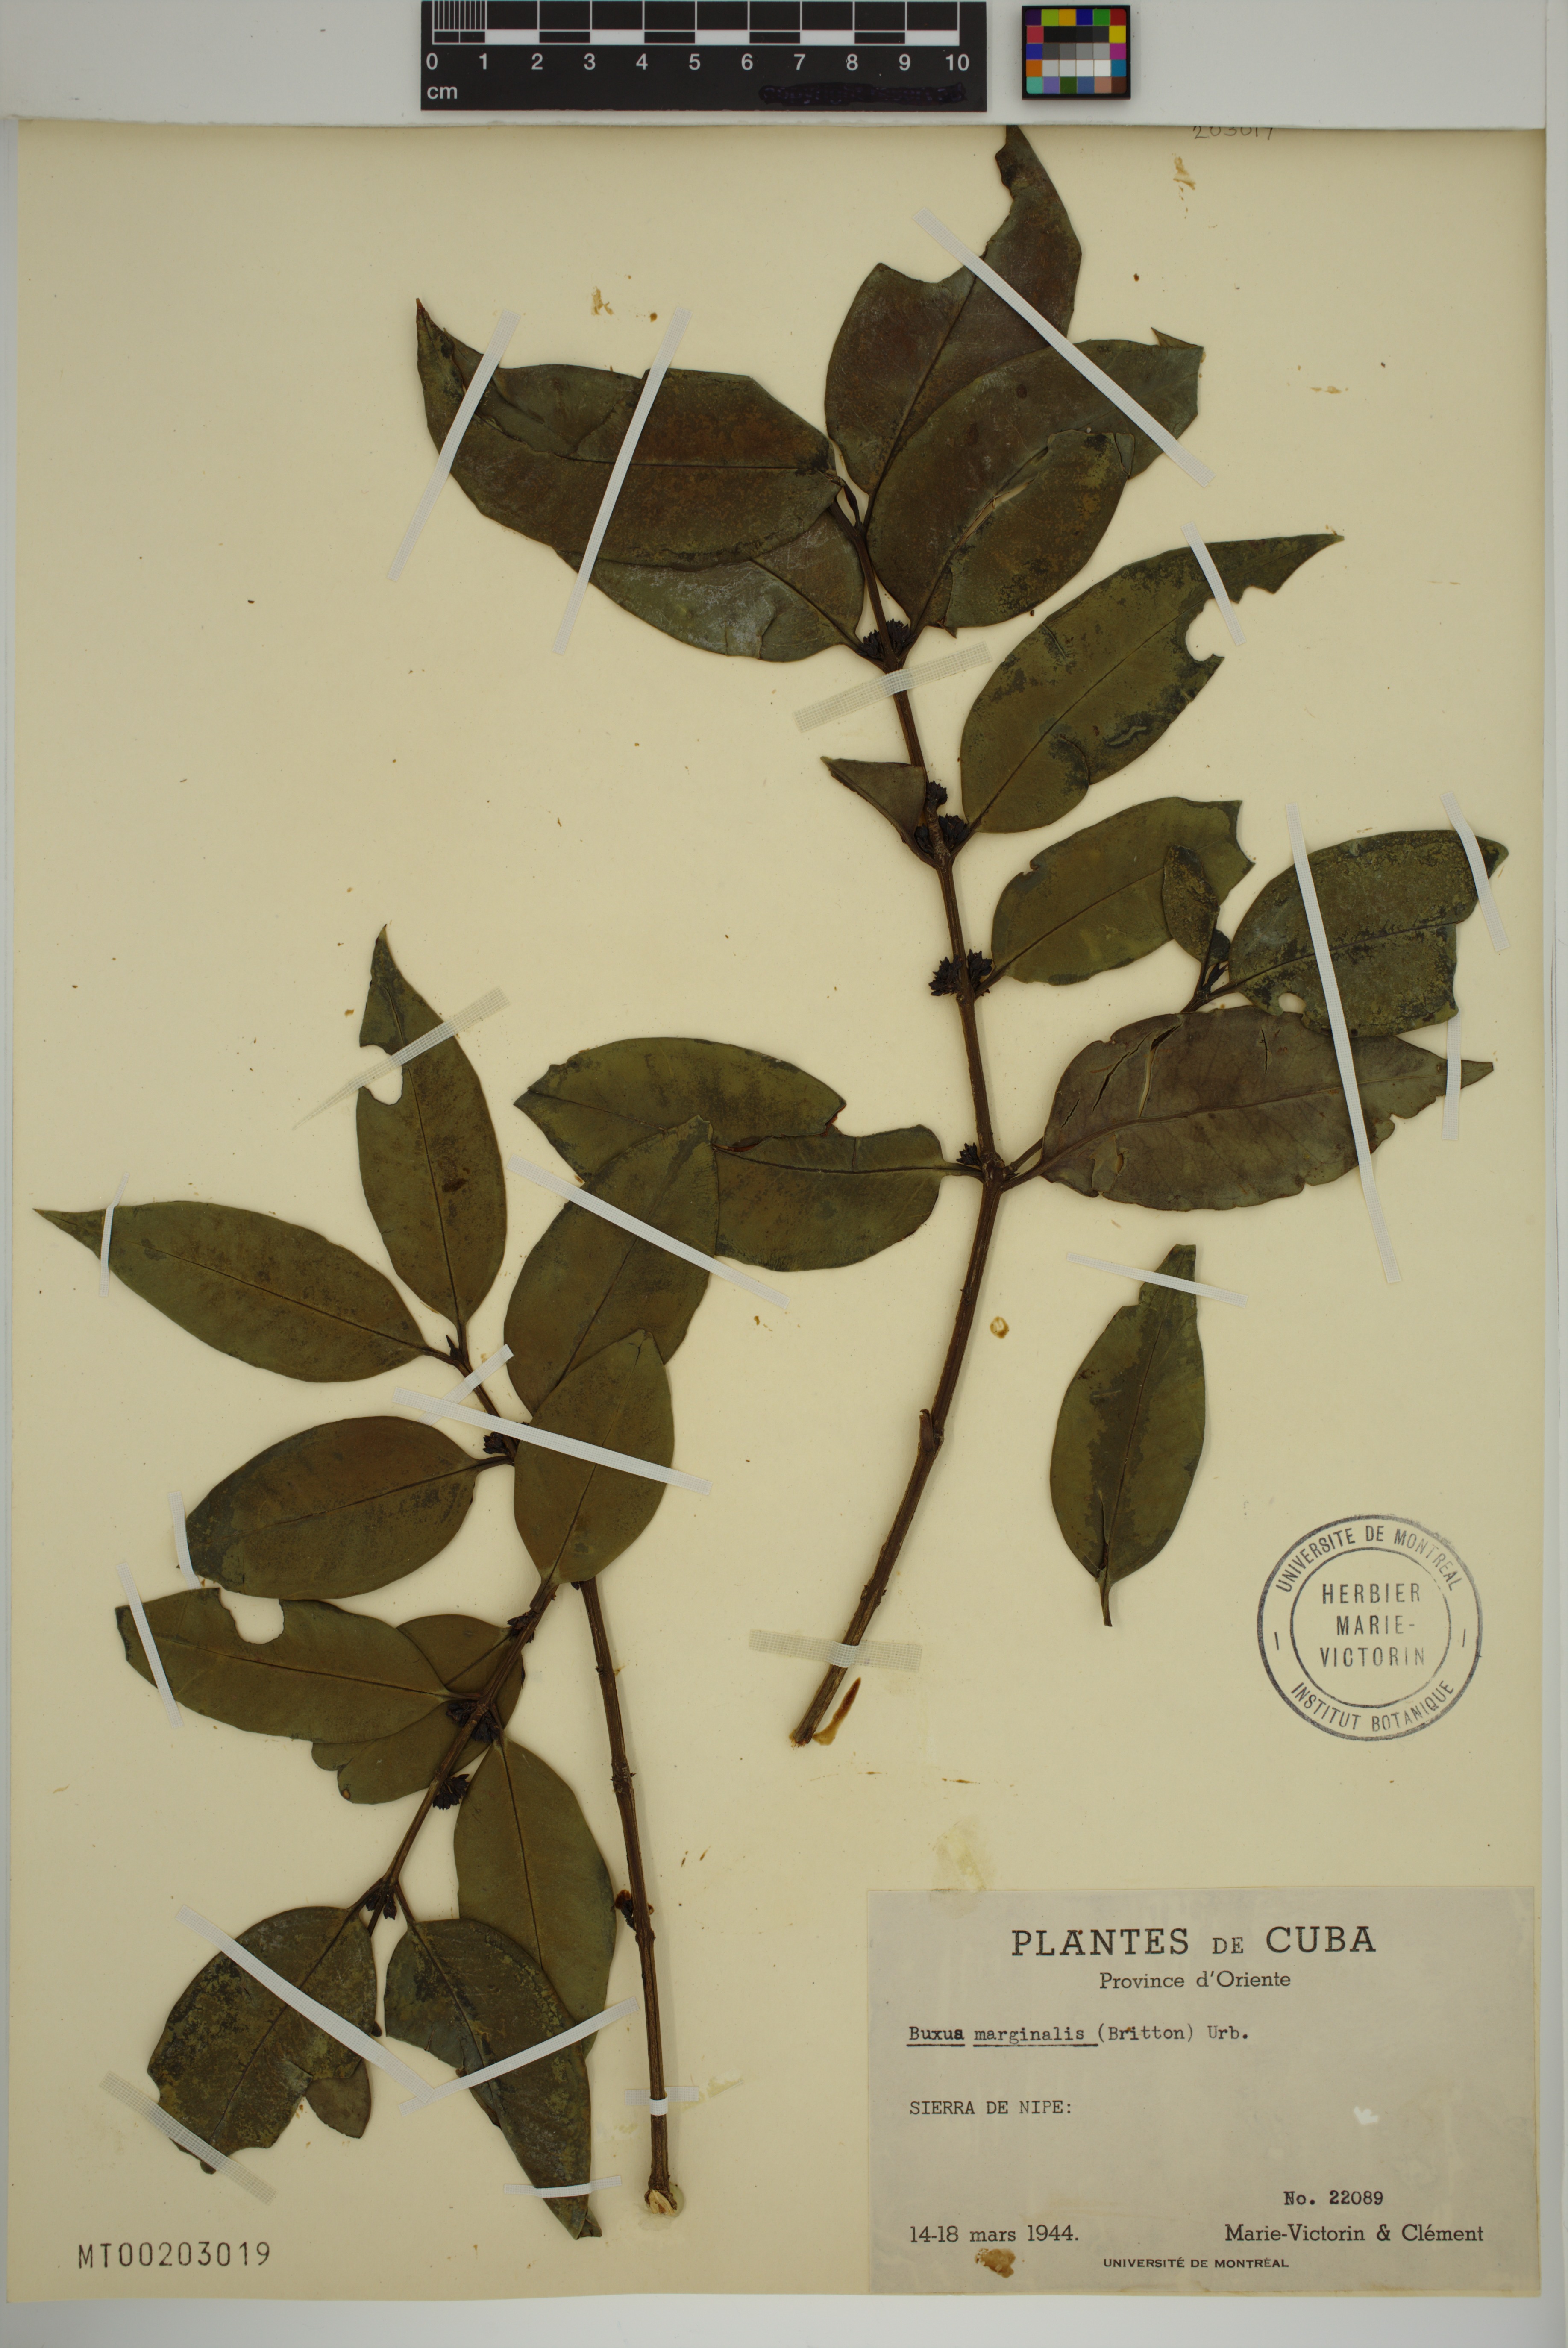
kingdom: Plantae
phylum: Tracheophyta
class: Magnoliopsida
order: Buxales
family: Buxaceae
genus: Buxus
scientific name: Buxus marginalis
